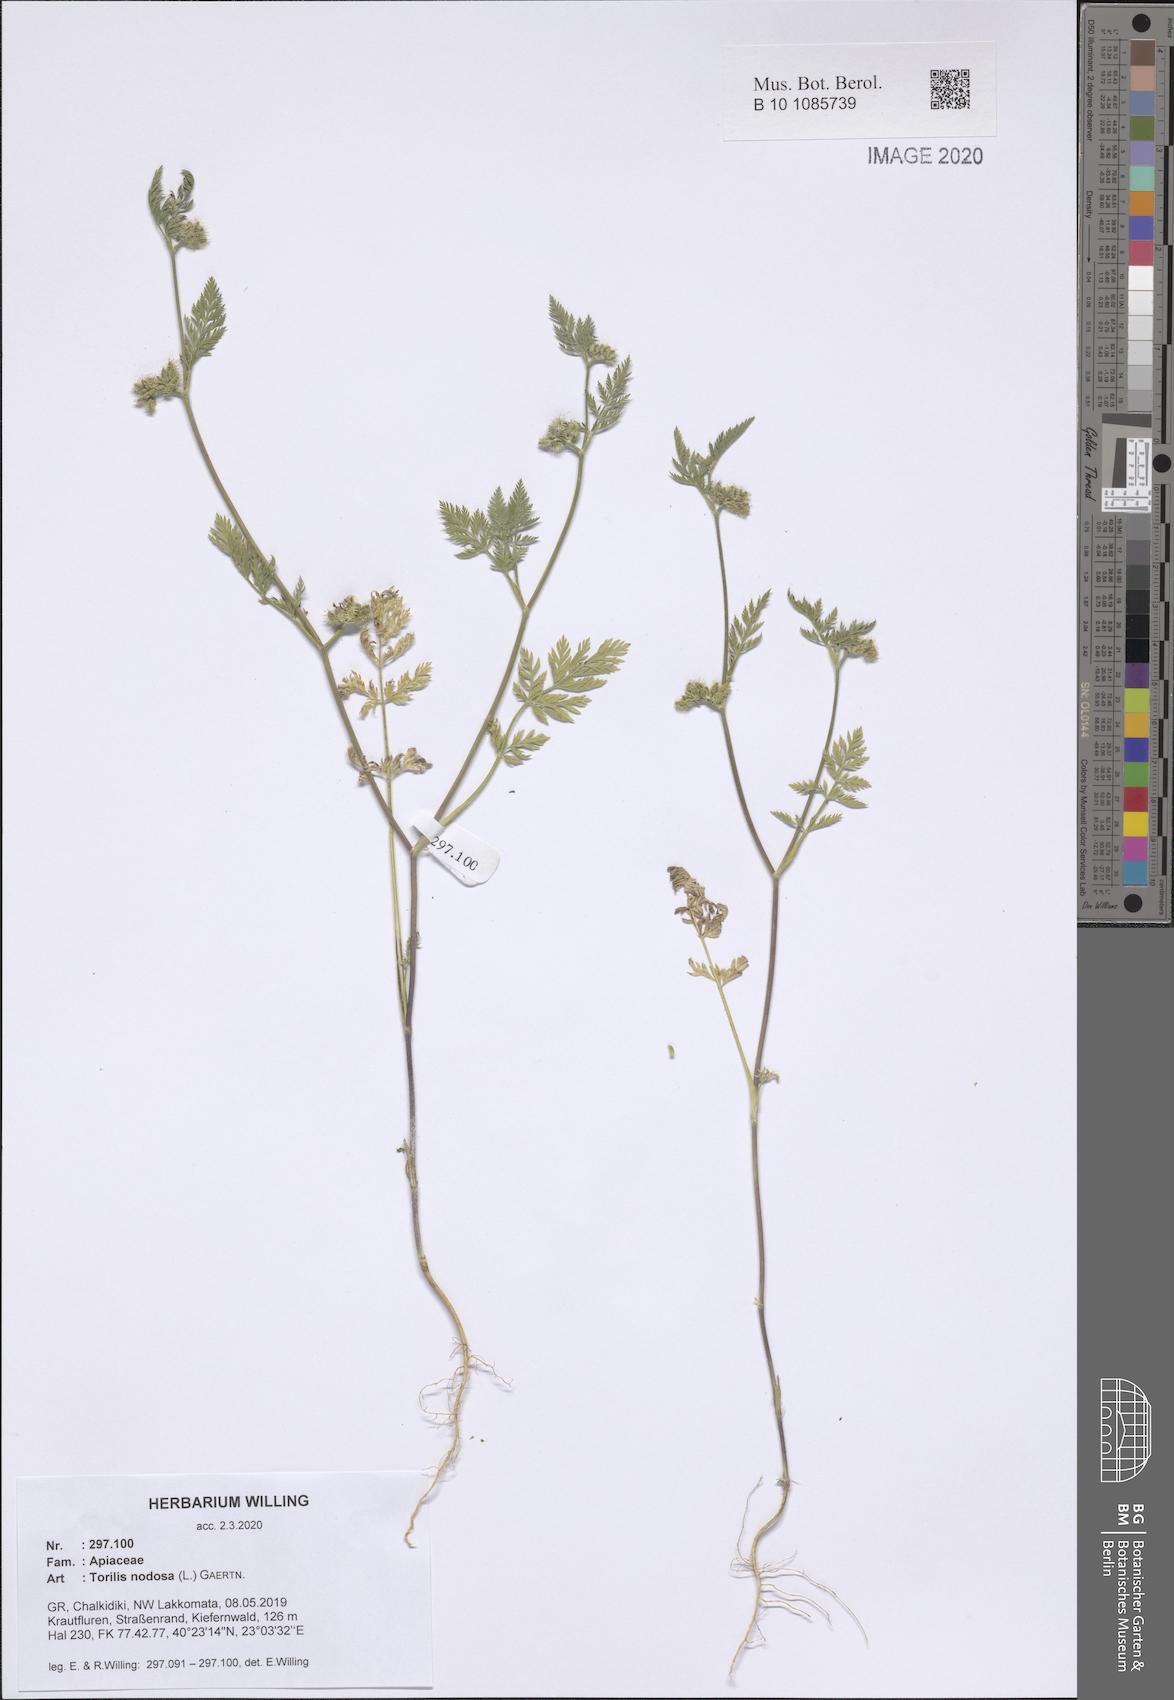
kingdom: Plantae
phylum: Tracheophyta
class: Magnoliopsida
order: Apiales
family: Apiaceae
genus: Torilis
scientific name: Torilis nodosa
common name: Knotted hedge-parsley
